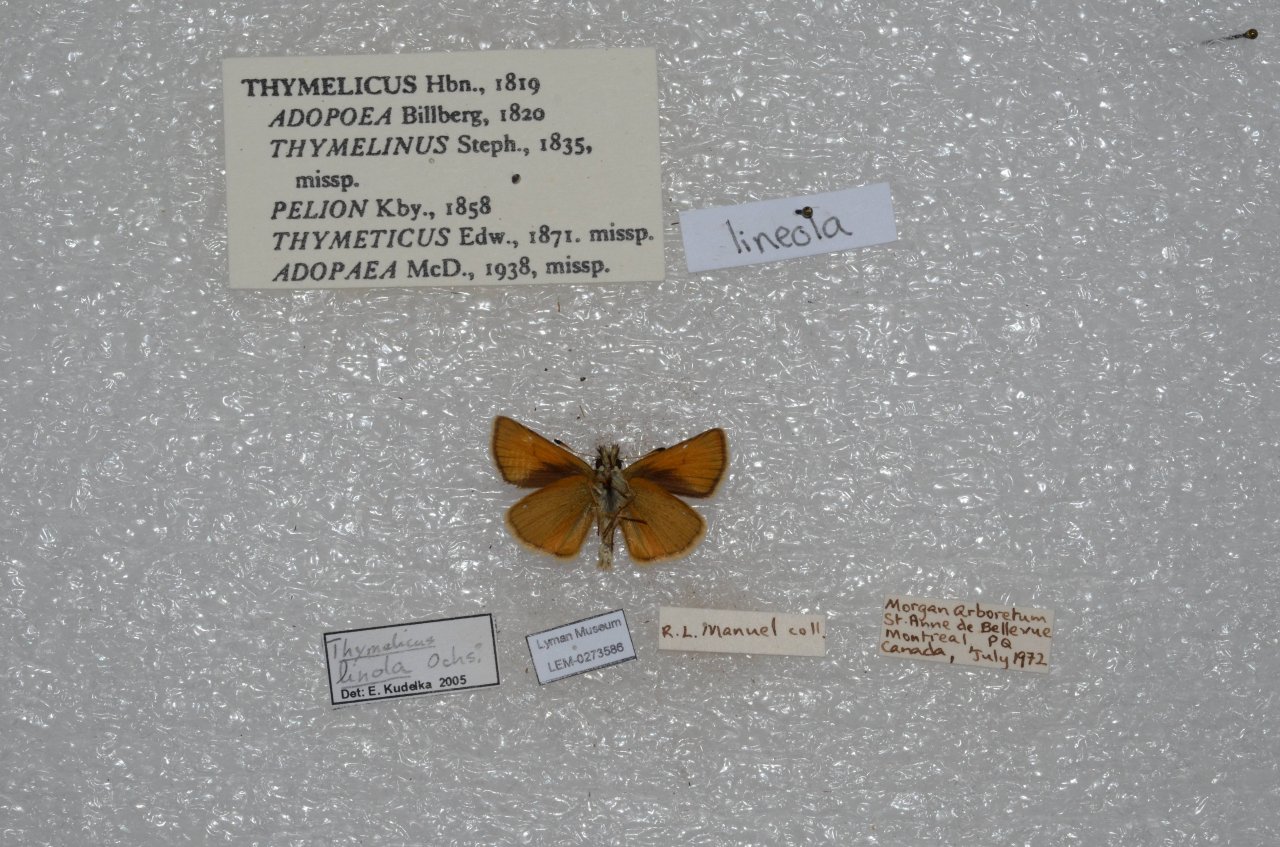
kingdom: Animalia
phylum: Arthropoda
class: Insecta
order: Lepidoptera
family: Hesperiidae
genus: Thymelicus
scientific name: Thymelicus lineola
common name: European Skipper
